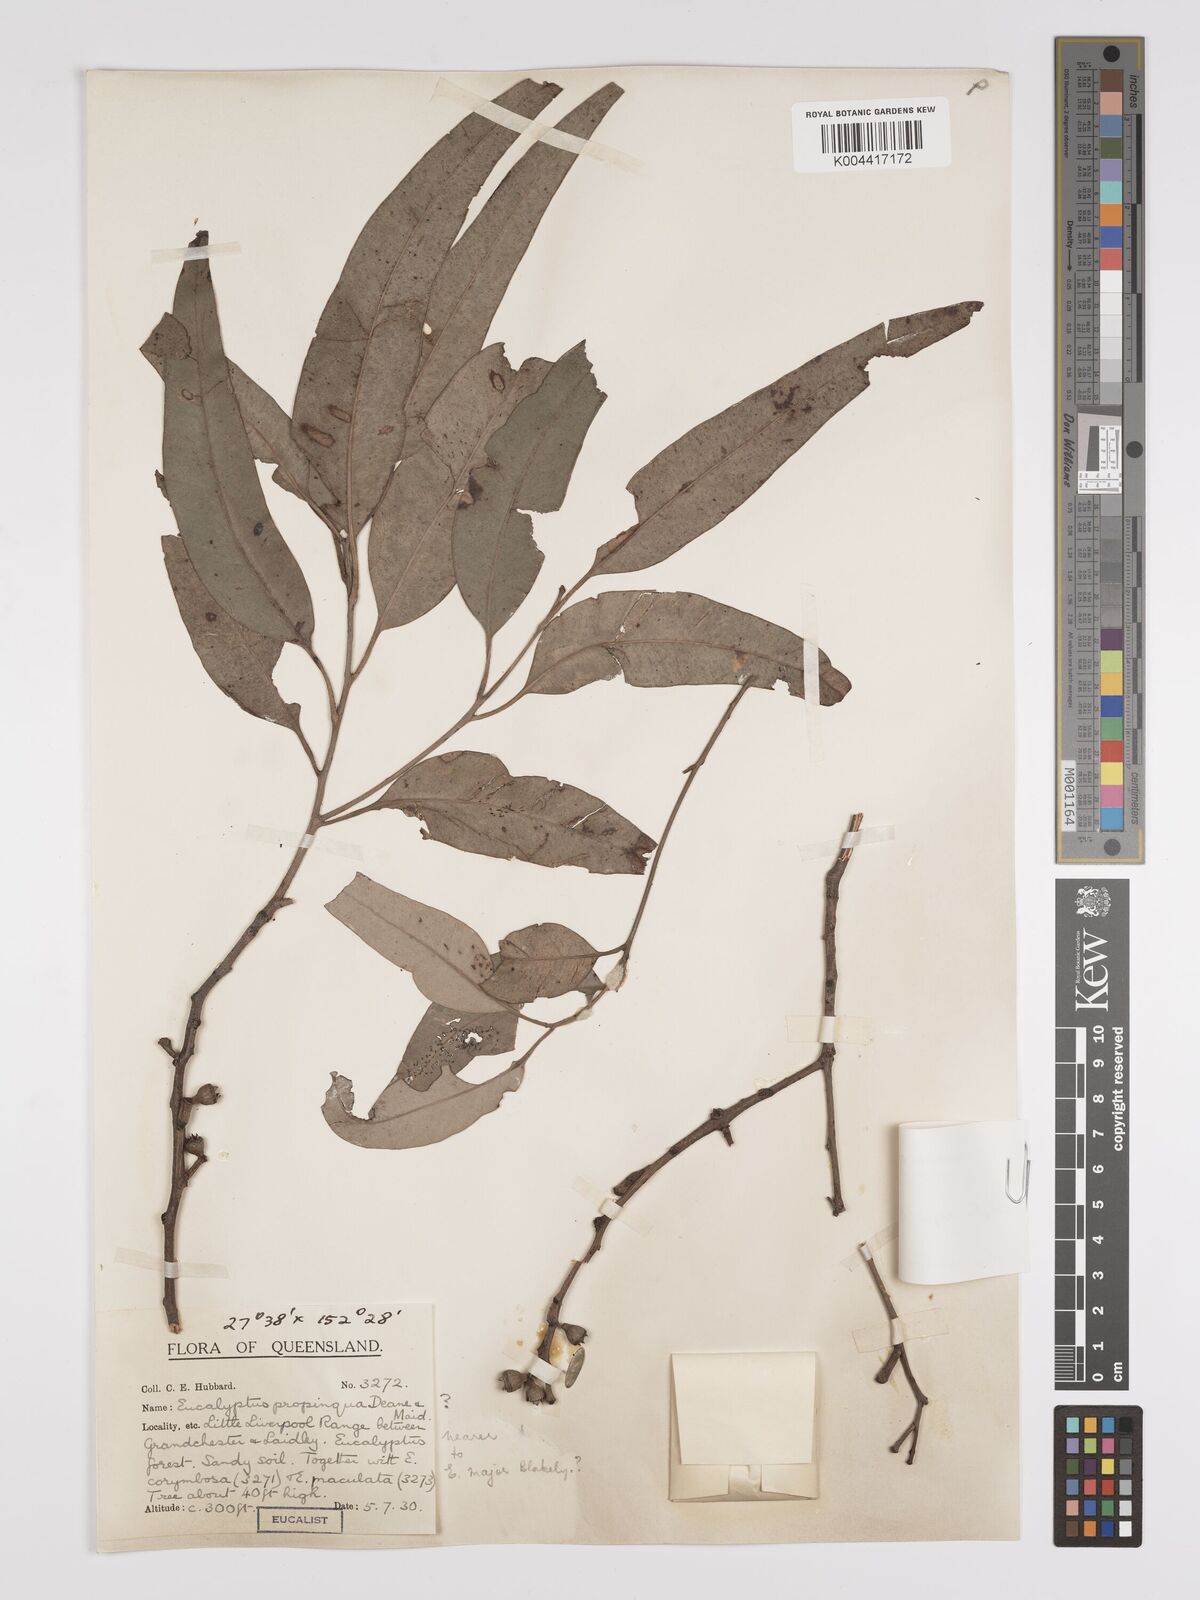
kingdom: Plantae
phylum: Tracheophyta
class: Magnoliopsida
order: Myrtales
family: Myrtaceae
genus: Eucalyptus
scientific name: Eucalyptus major
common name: Queensland grey gum
